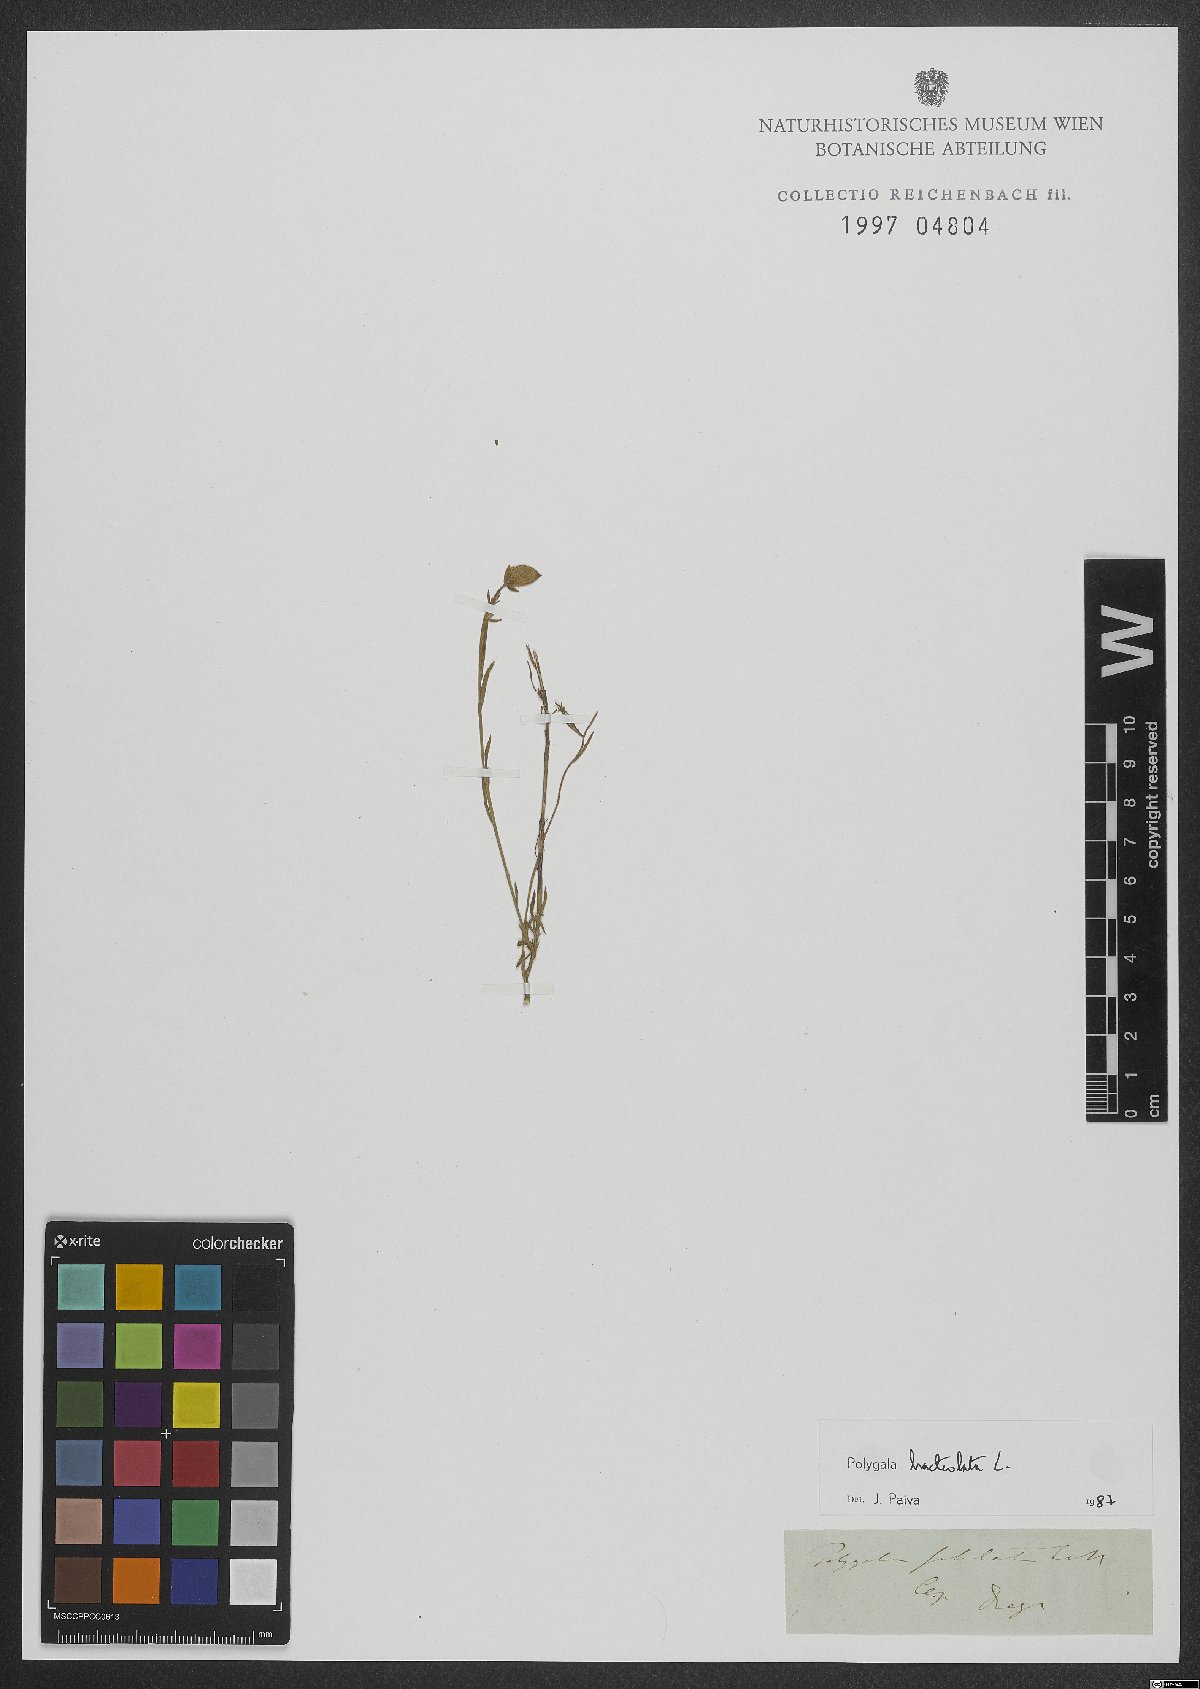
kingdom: Plantae
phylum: Tracheophyta
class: Magnoliopsida
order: Fabales
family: Polygalaceae
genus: Polygala
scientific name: Polygala bracteata
